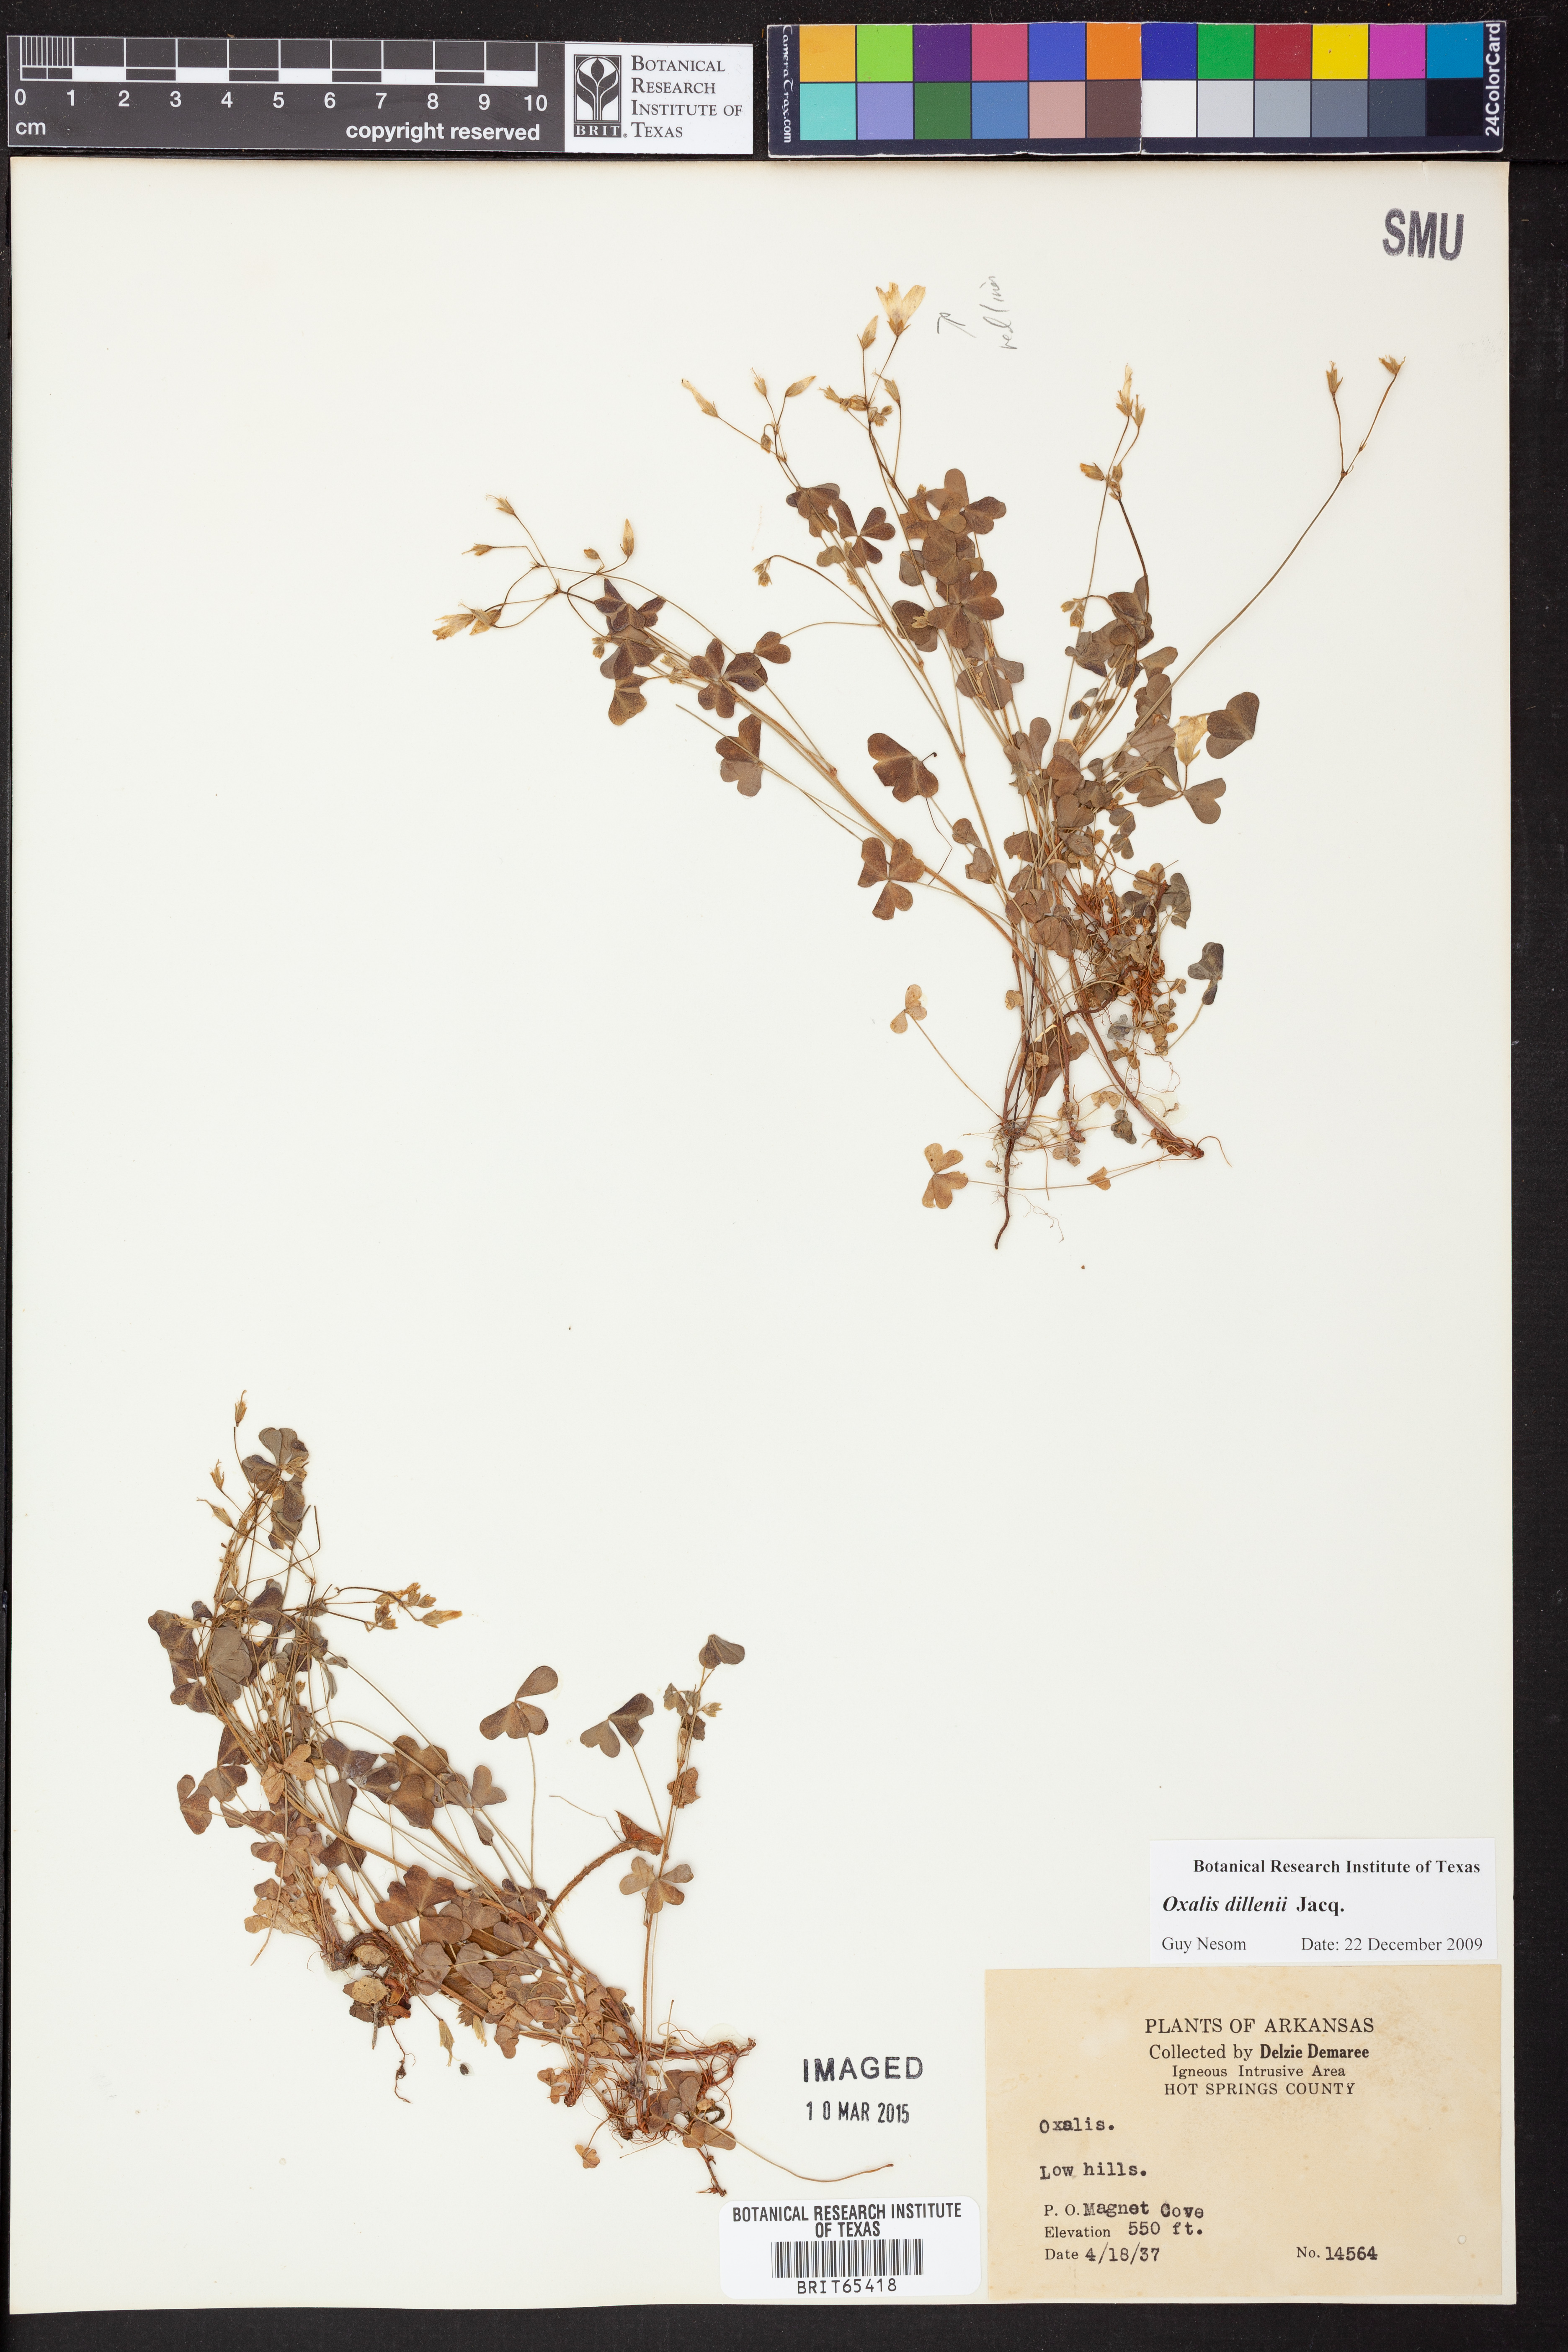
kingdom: Plantae
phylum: Tracheophyta
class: Magnoliopsida
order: Oxalidales
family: Oxalidaceae
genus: Oxalis
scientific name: Oxalis dillenii
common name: Sussex yellow-sorrel
